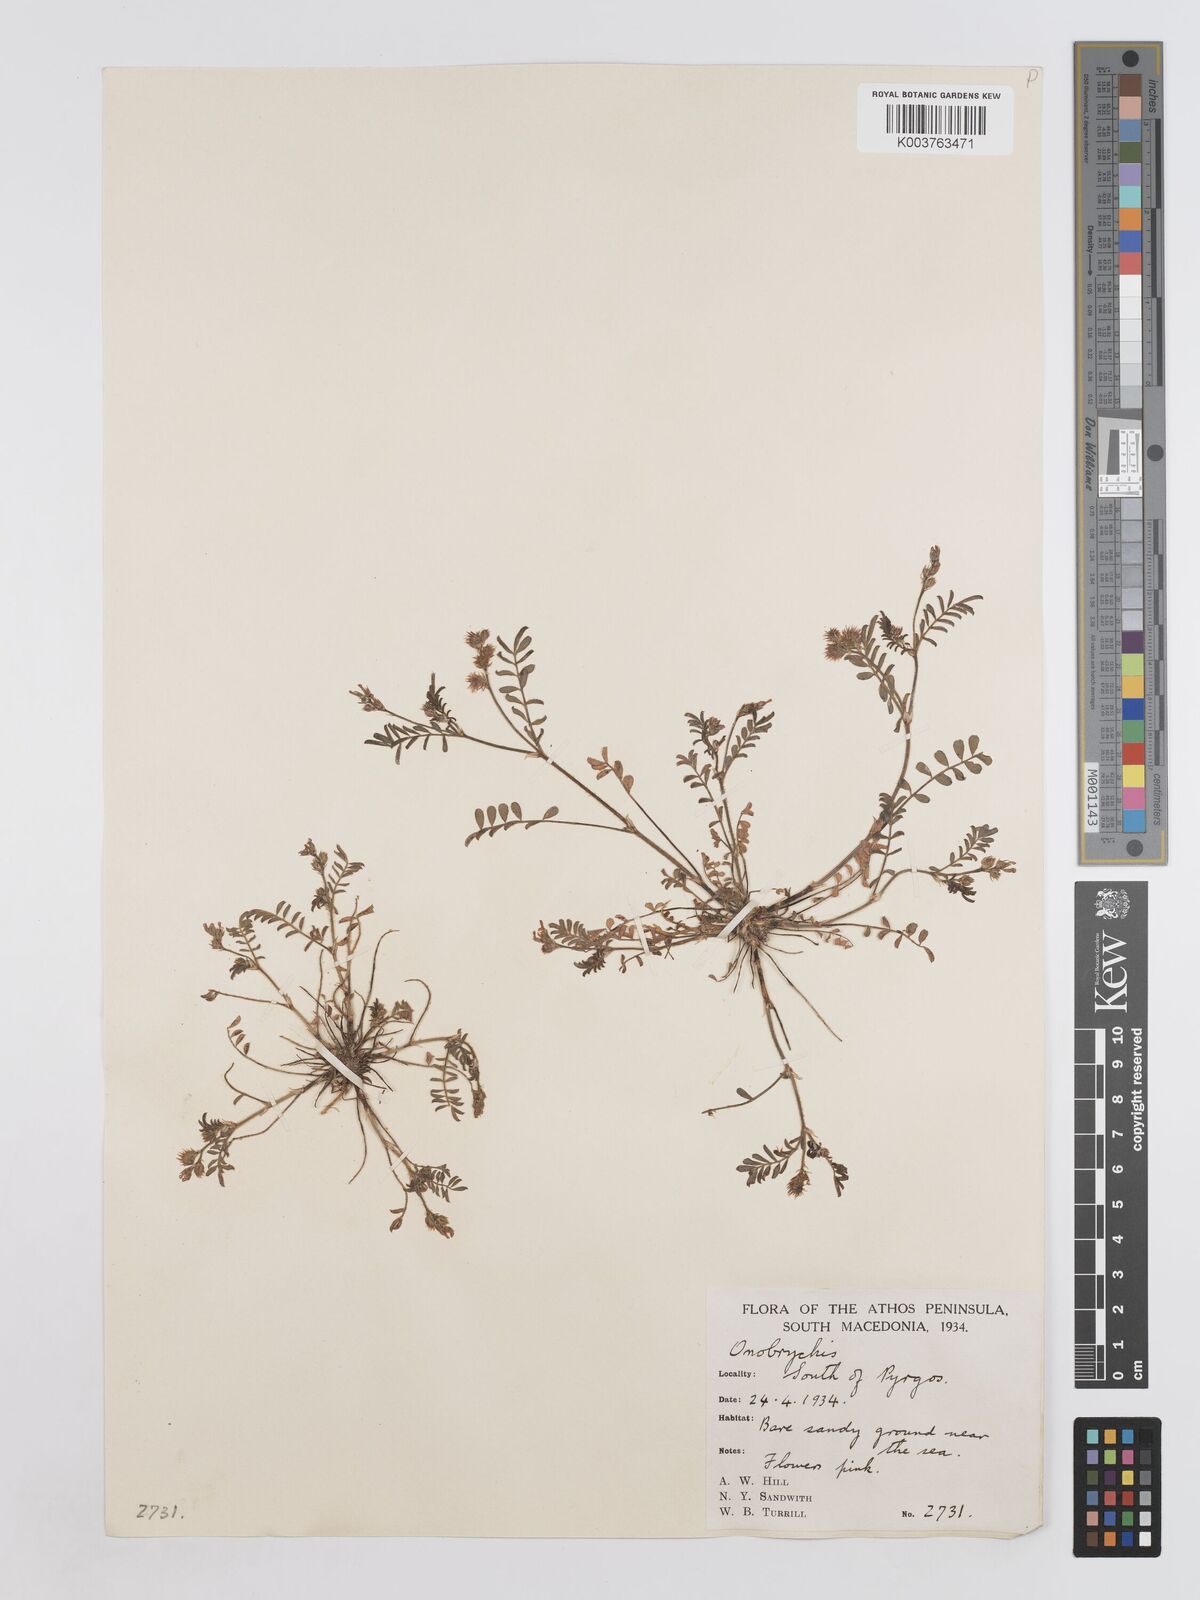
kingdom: Plantae
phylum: Tracheophyta
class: Magnoliopsida
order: Fabales
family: Fabaceae
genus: Onobrychis
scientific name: Onobrychis caput-galli
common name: Cockscomb sainfoin
